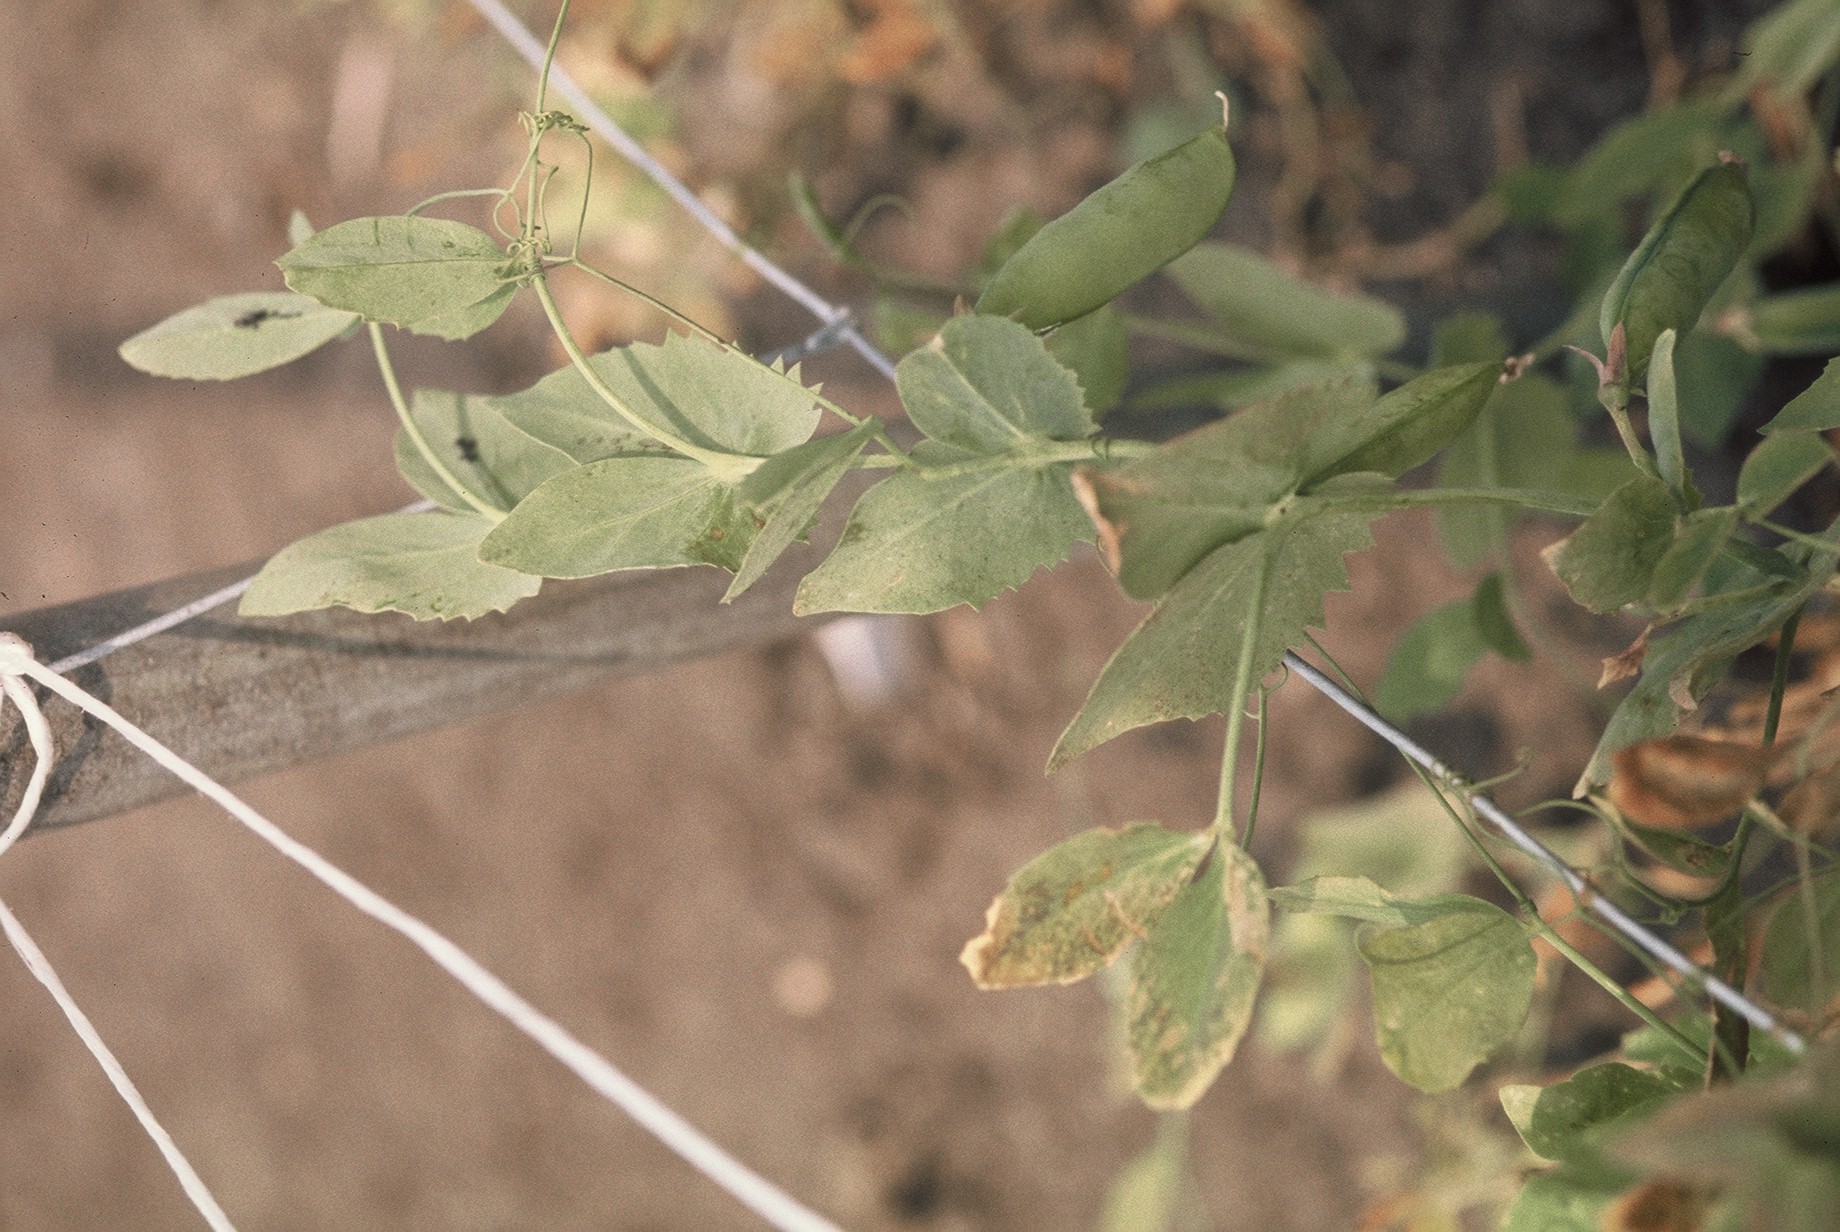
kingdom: Plantae
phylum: Tracheophyta
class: Magnoliopsida
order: Fabales
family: Fabaceae
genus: Lathyrus
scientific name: Lathyrus oleraceus
